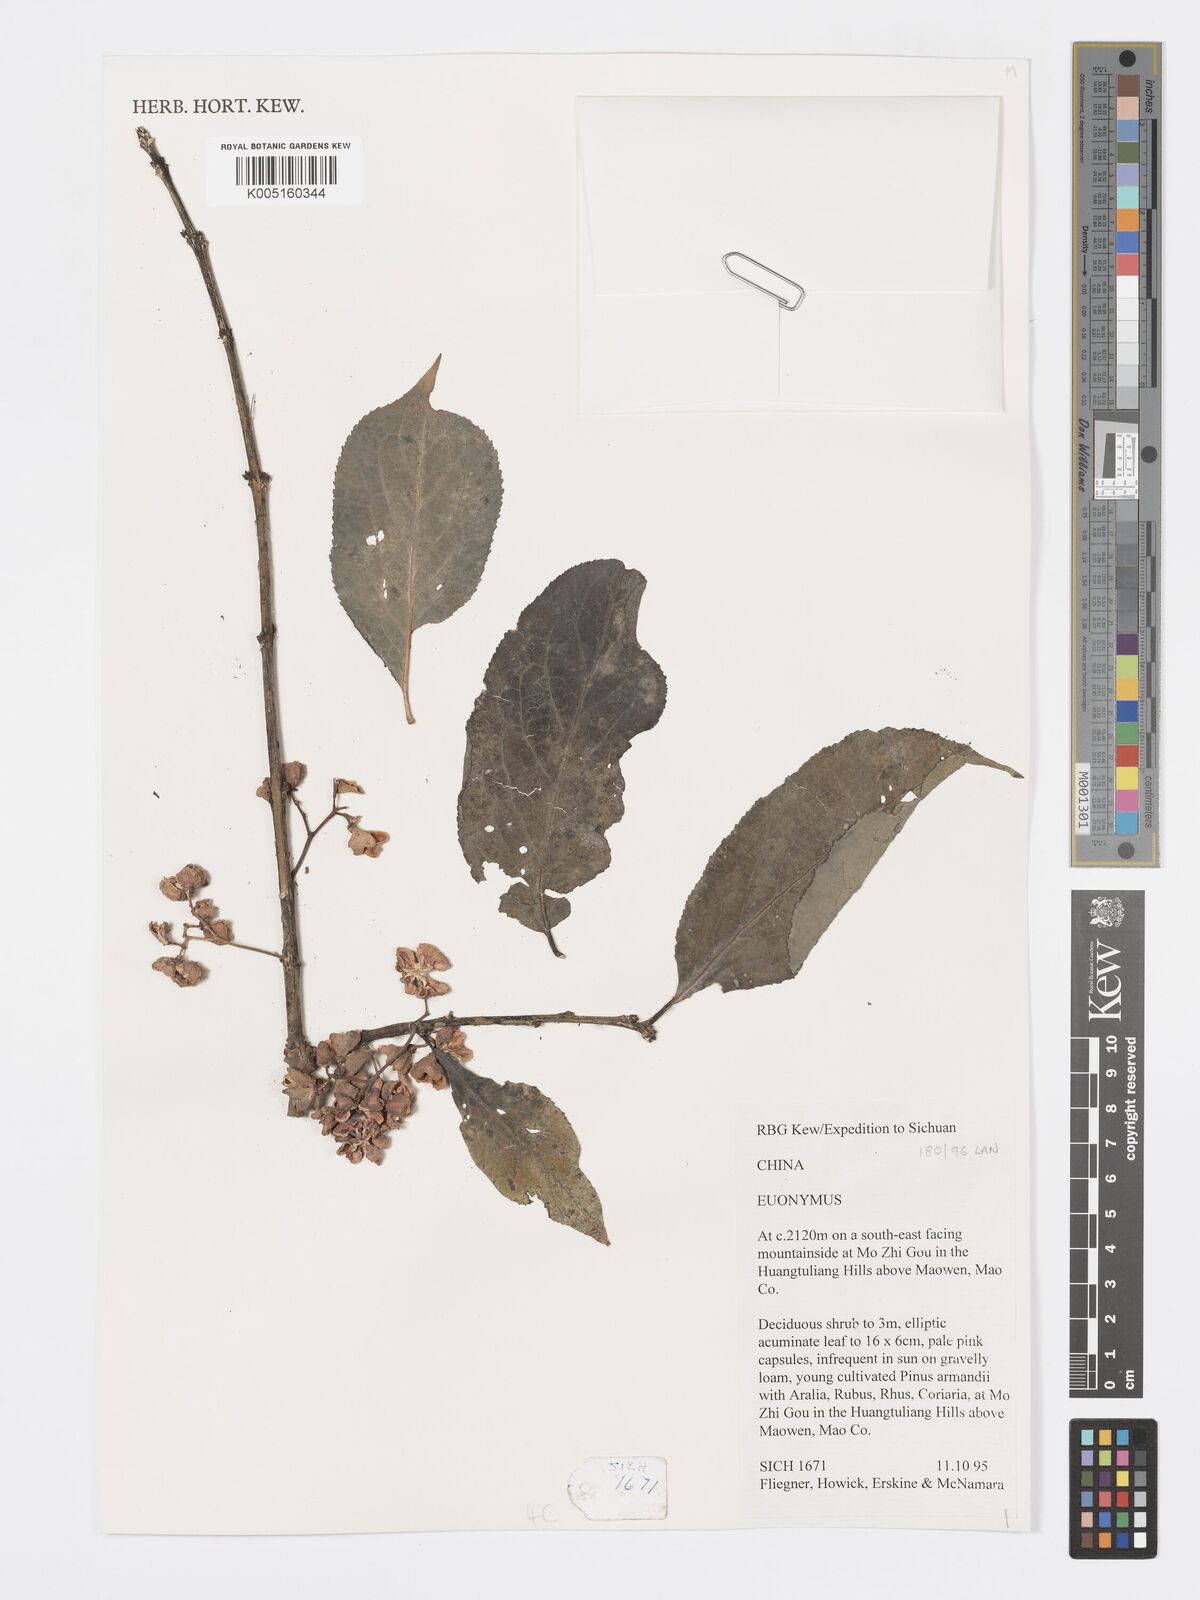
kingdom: Plantae
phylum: Tracheophyta
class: Magnoliopsida
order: Celastrales
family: Celastraceae
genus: Euonymus
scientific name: Euonymus
